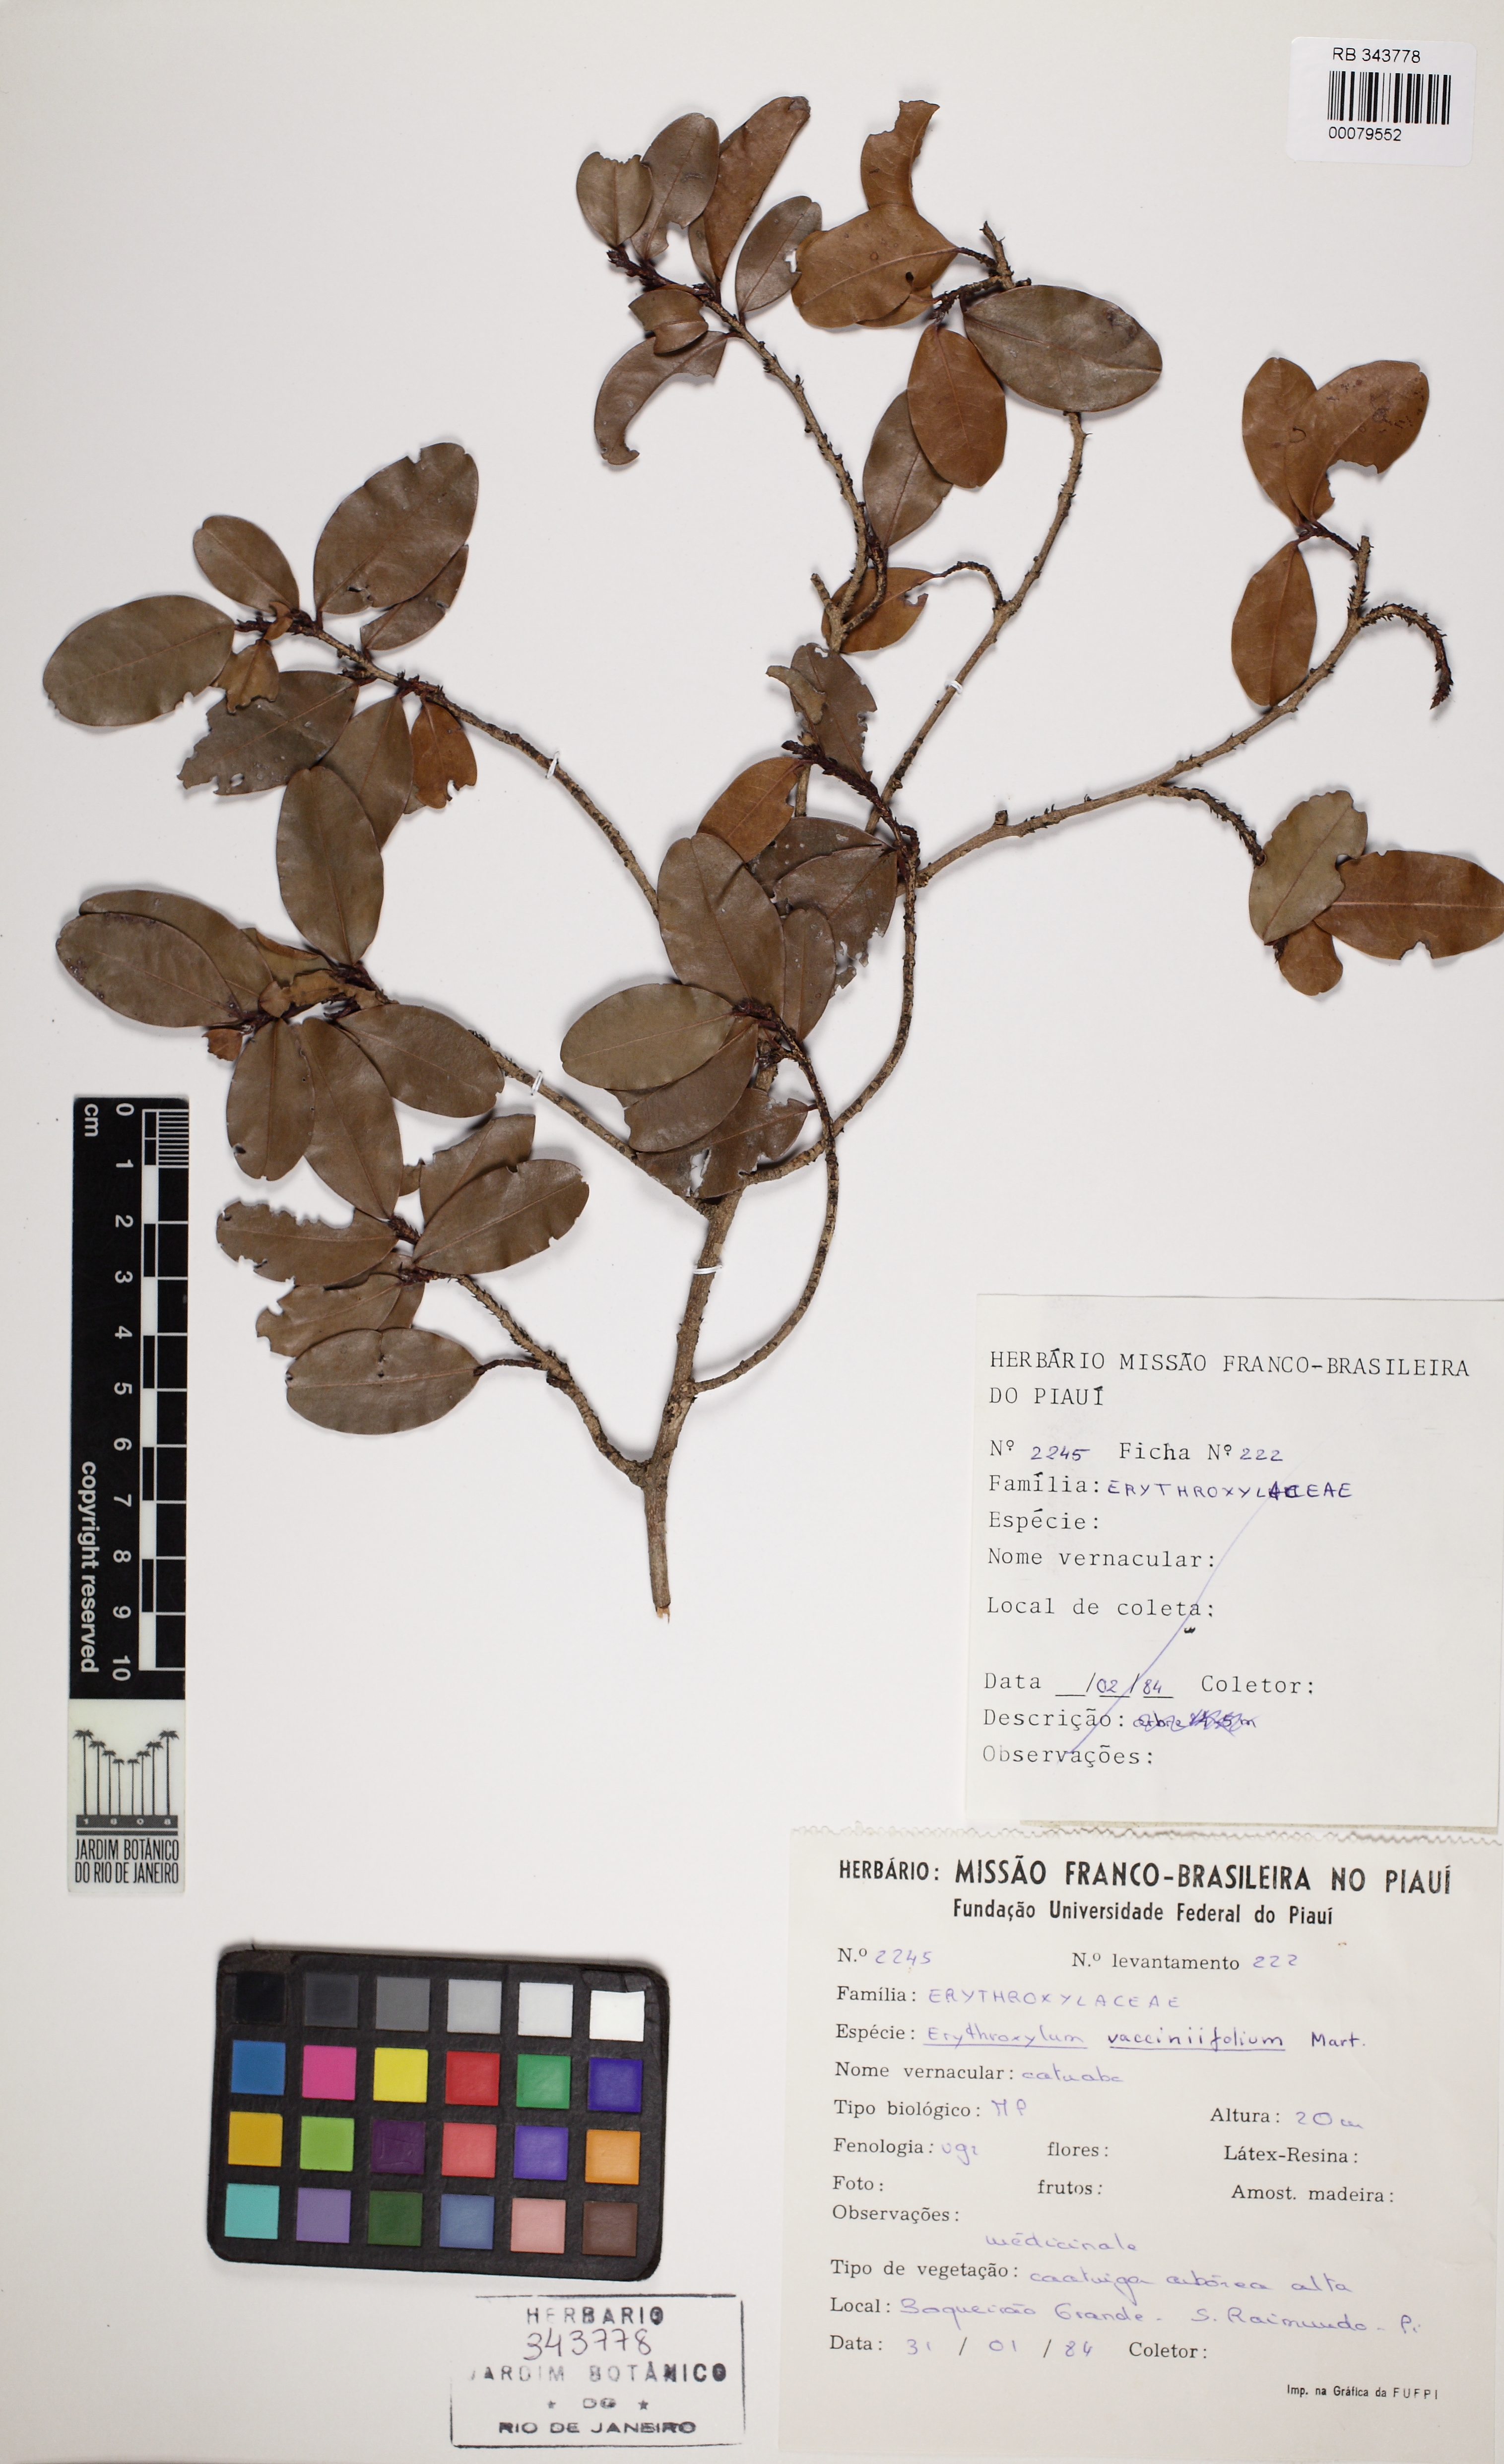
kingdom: Plantae
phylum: Tracheophyta
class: Magnoliopsida
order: Malpighiales
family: Erythroxylaceae
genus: Erythroxylum
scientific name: Erythroxylum vaccinifolium
